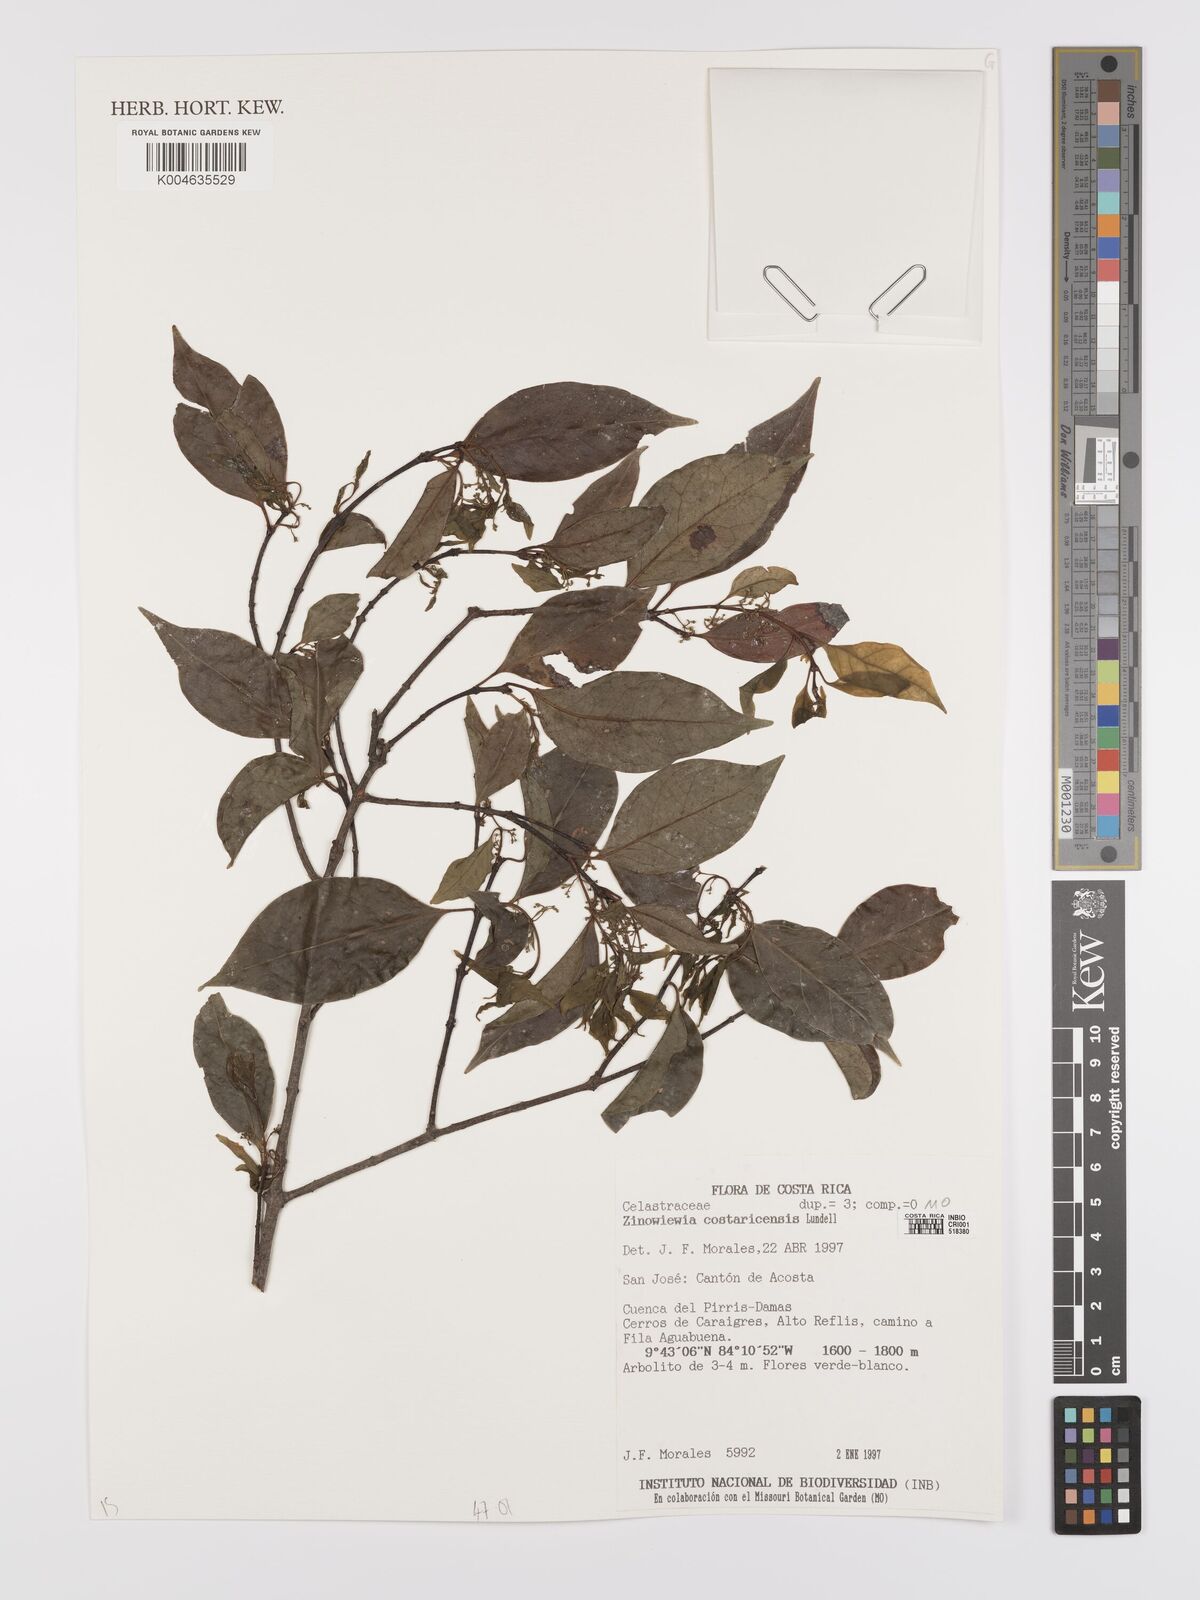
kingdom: Plantae
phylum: Tracheophyta
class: Magnoliopsida
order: Celastrales
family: Celastraceae
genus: Zinowiewia
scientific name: Zinowiewia integerrima
